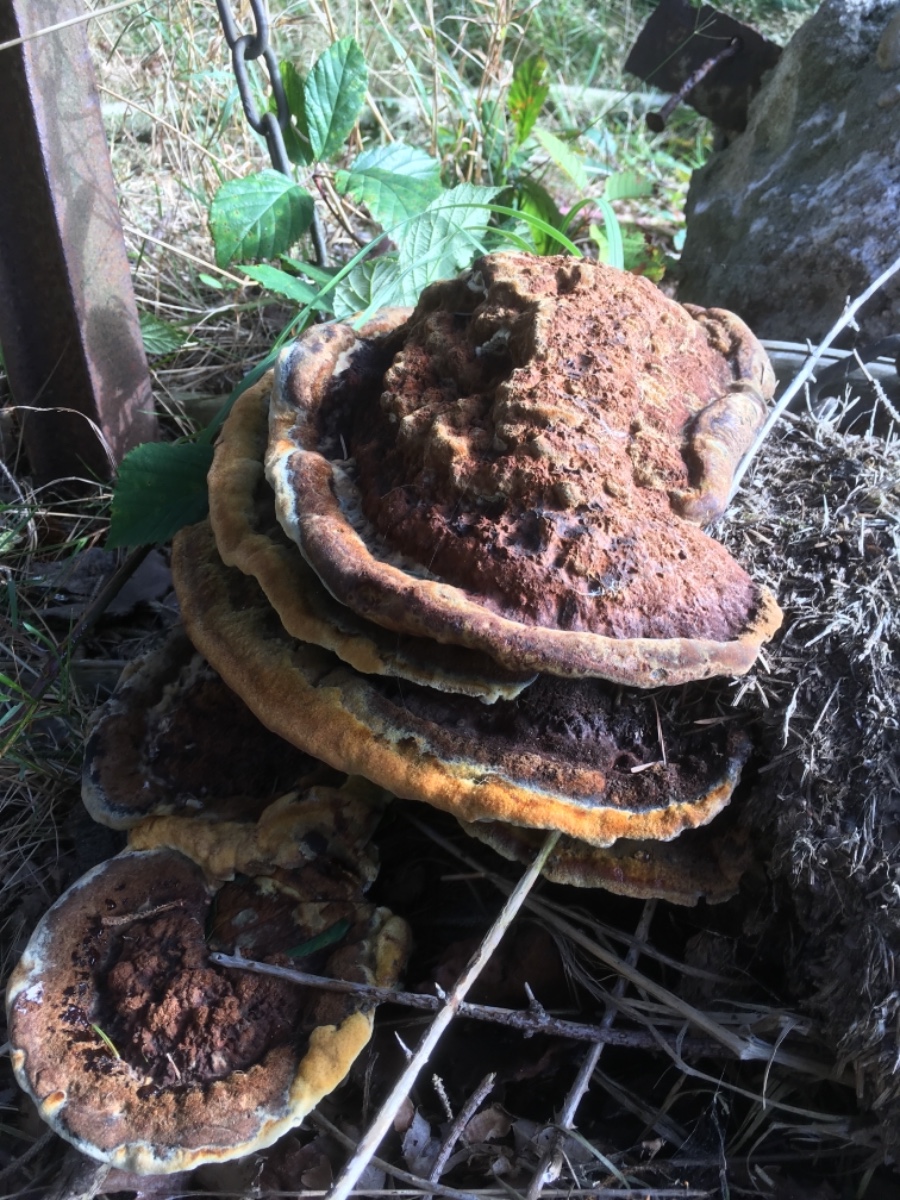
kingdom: Fungi
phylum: Basidiomycota
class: Agaricomycetes
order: Polyporales
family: Laetiporaceae
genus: Phaeolus
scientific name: Phaeolus schweinitzii
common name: brunporesvamp
